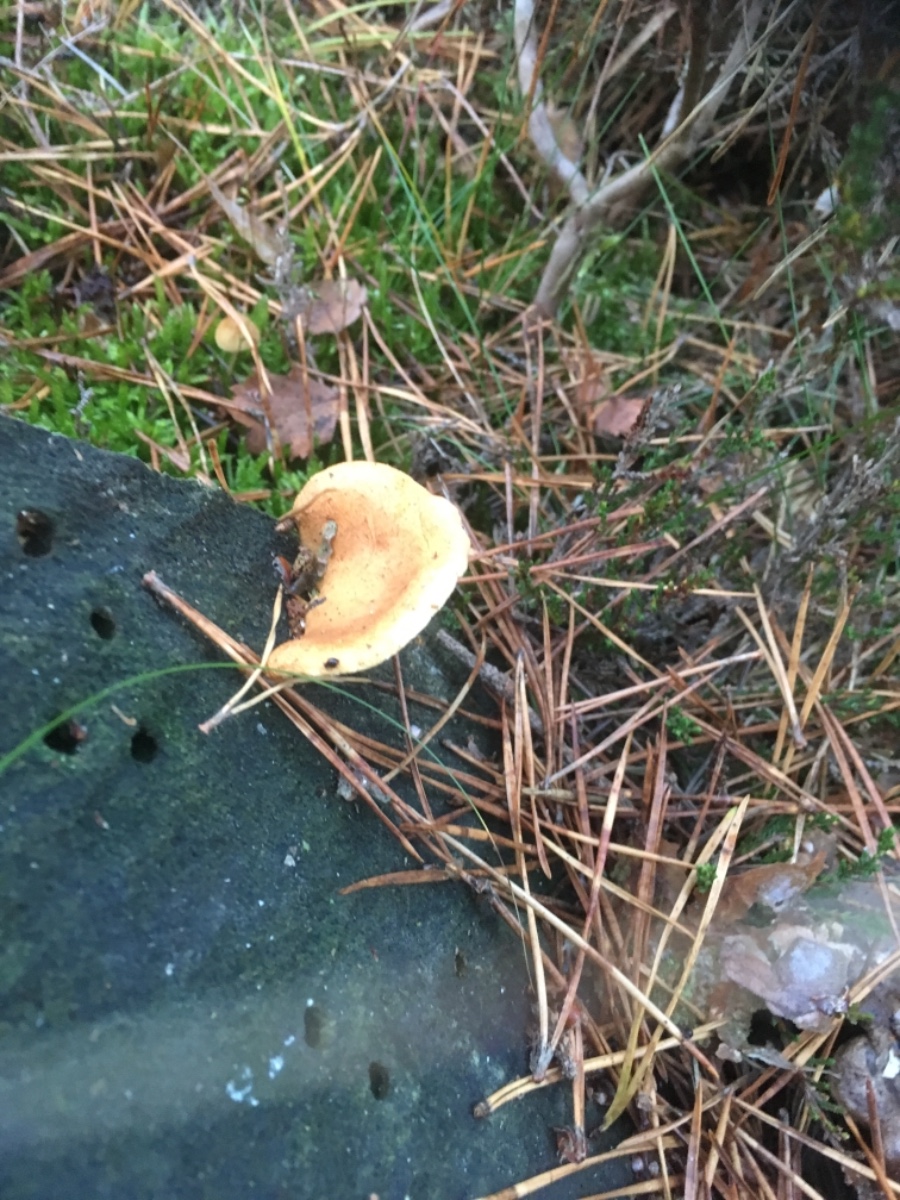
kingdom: Fungi
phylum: Basidiomycota
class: Agaricomycetes
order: Agaricales
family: Hymenogastraceae
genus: Gymnopilus
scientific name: Gymnopilus penetrans
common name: plettet flammehat
